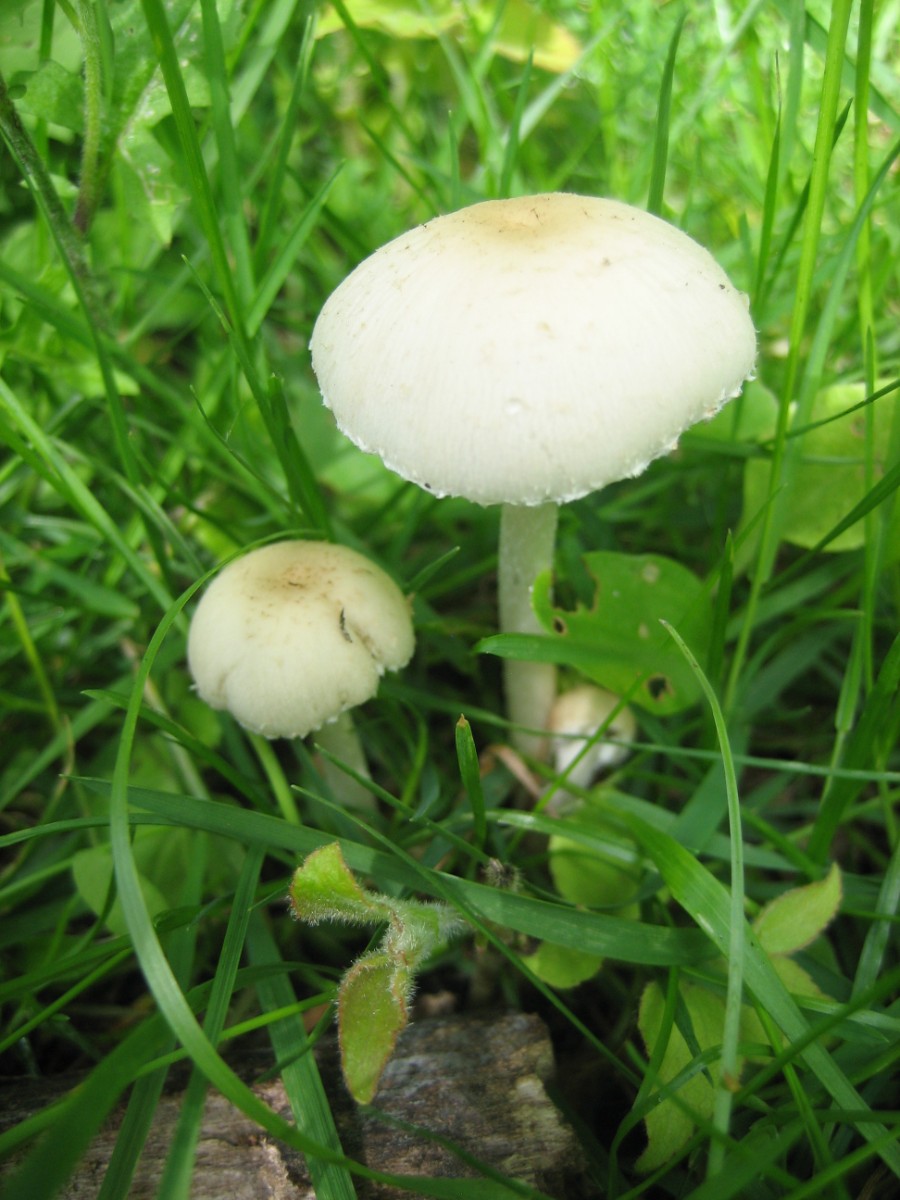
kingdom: Fungi
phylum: Basidiomycota
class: Agaricomycetes
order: Agaricales
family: Psathyrellaceae
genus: Candolleomyces
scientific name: Candolleomyces candolleanus
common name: Candolles mørkhat
